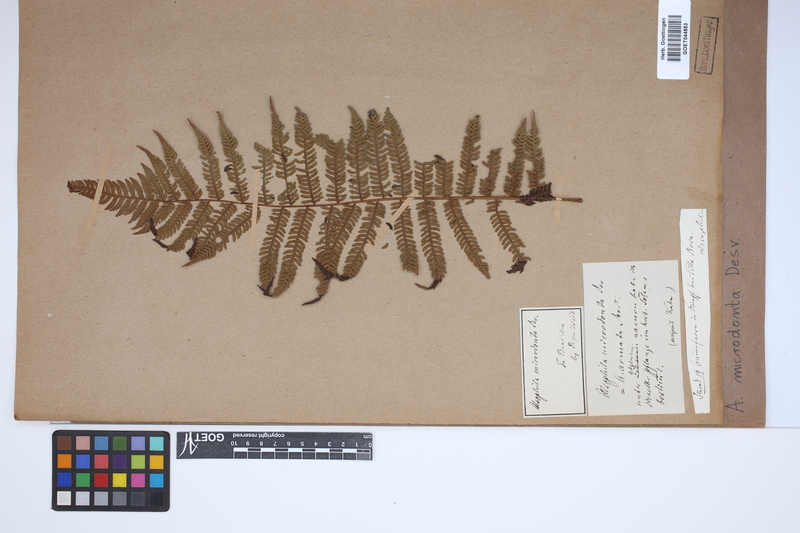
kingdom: Plantae
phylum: Tracheophyta
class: Polypodiopsida
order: Cyatheales
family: Cyatheaceae
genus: Cyathea
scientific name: Cyathea microdonta
